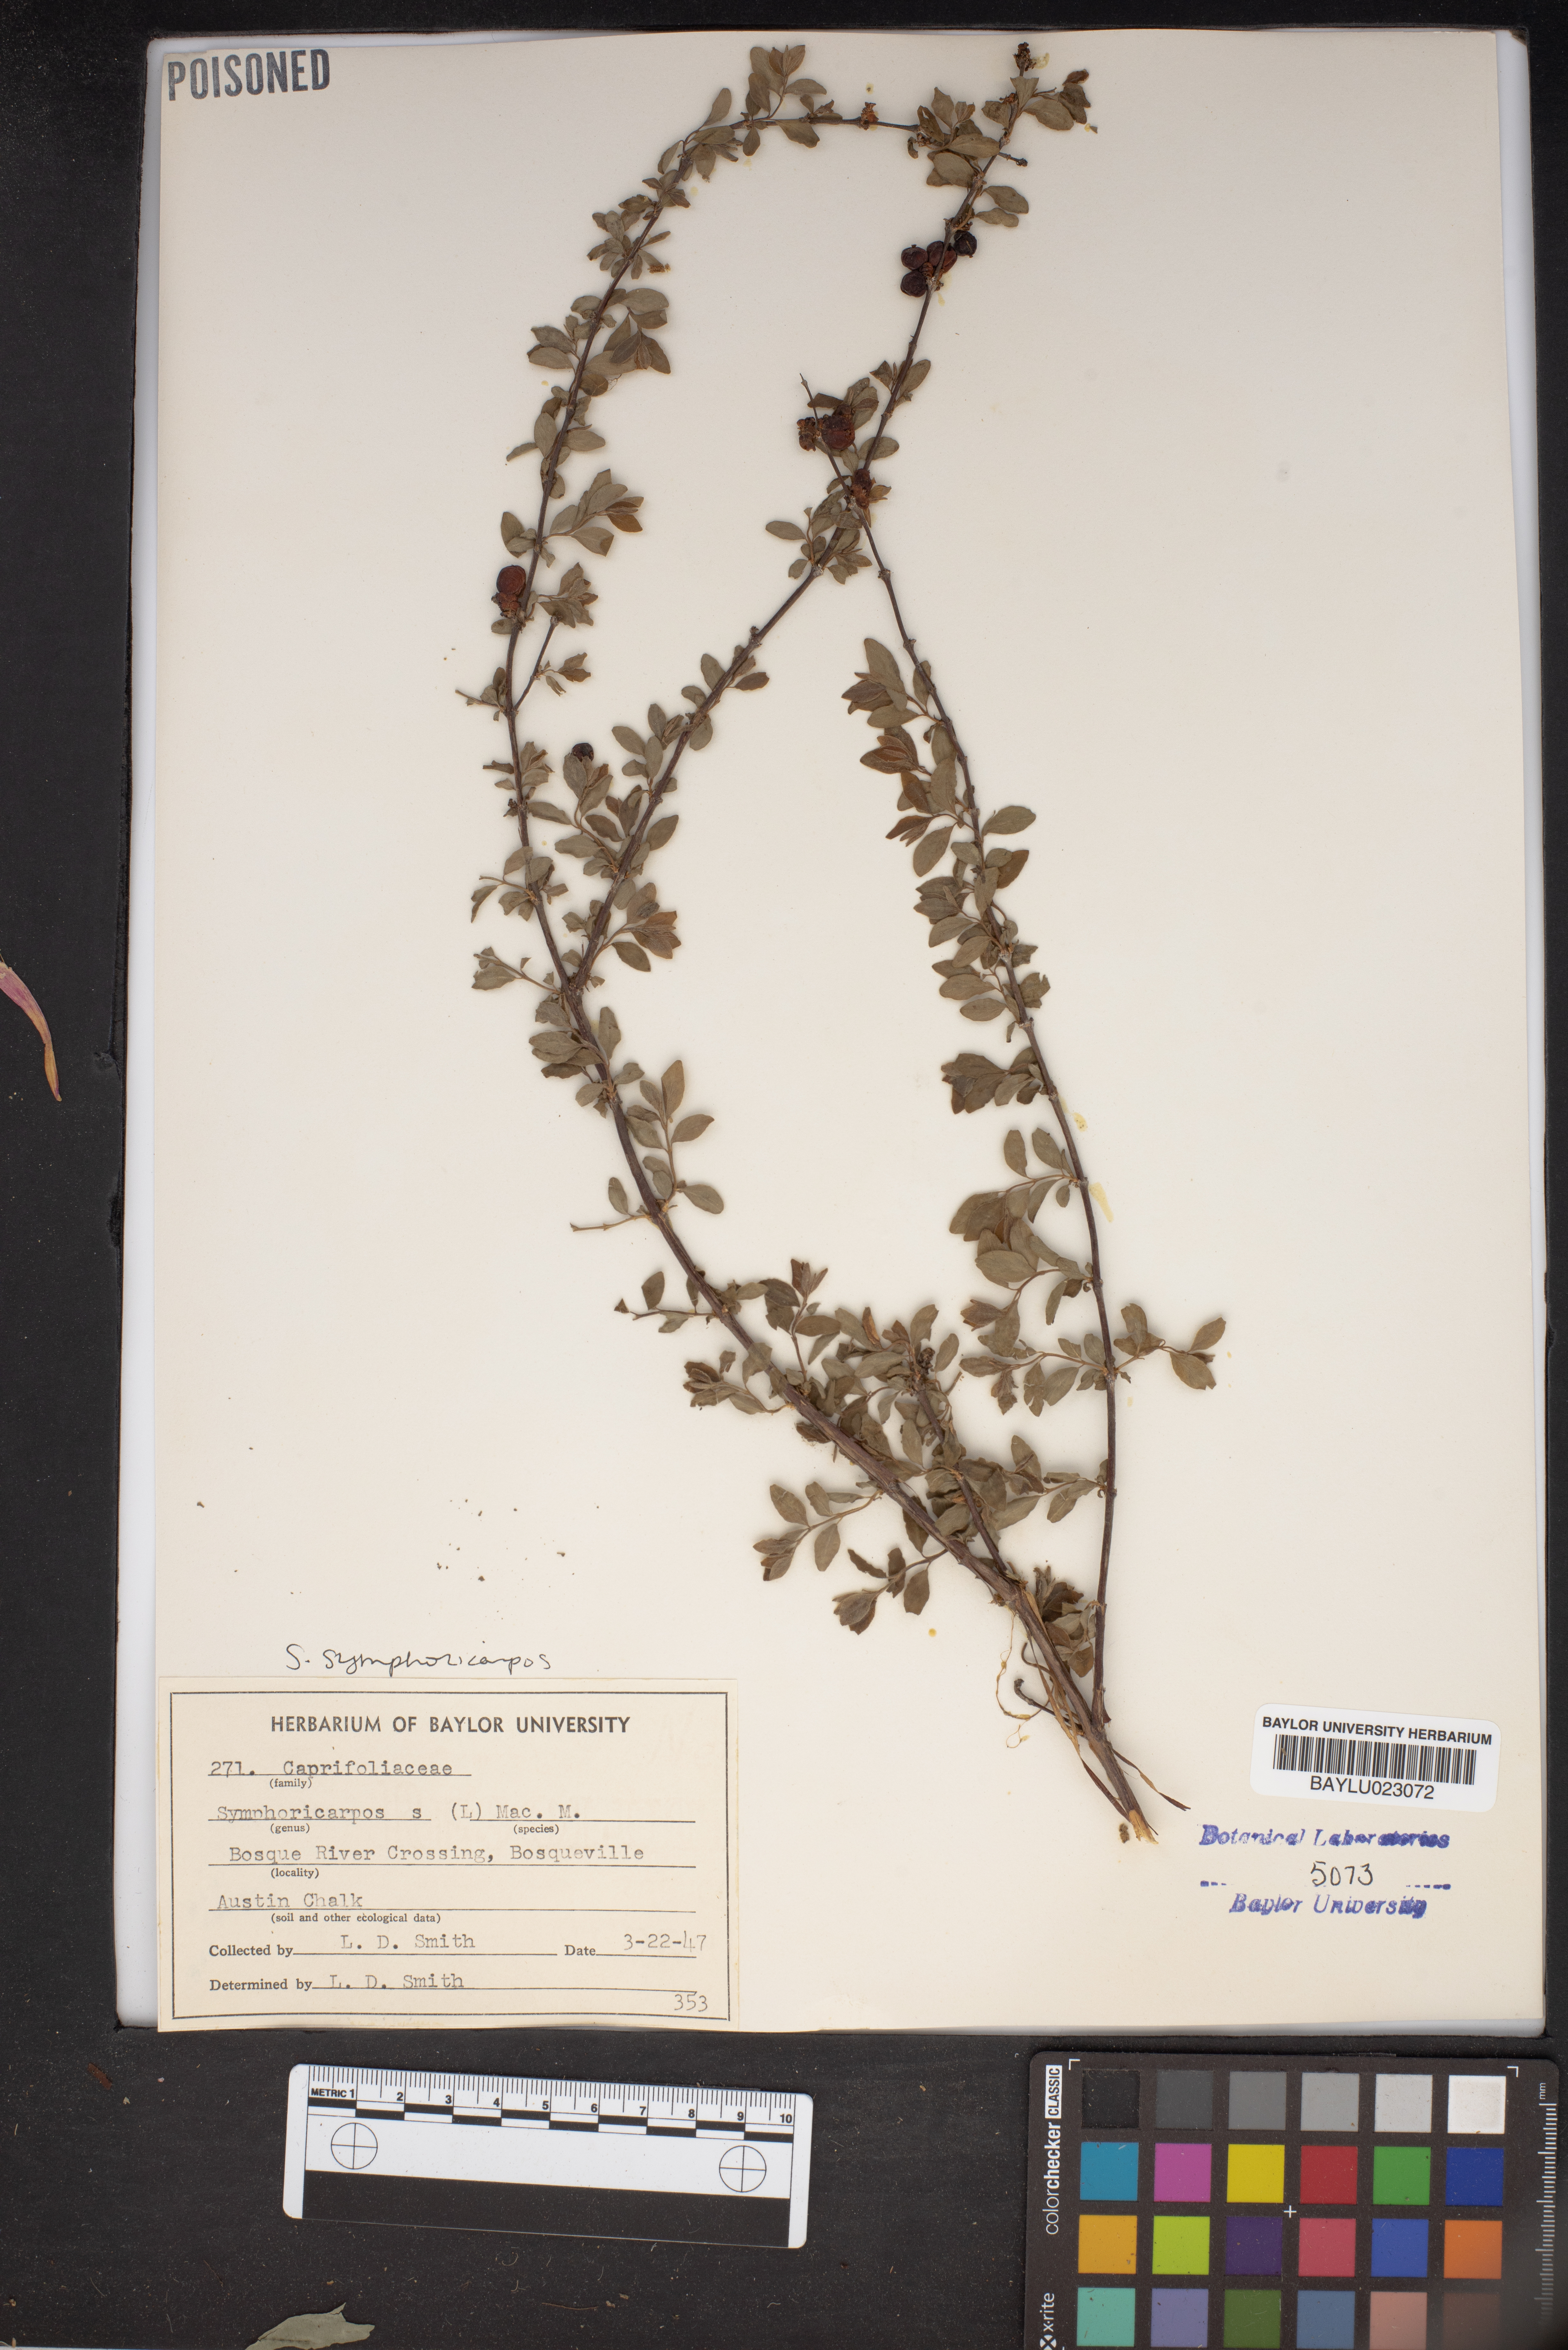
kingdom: Plantae
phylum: Tracheophyta
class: Magnoliopsida
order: Dipsacales
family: Caprifoliaceae
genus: Symphoricarpos
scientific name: Symphoricarpos orbiculatus
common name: Coralberry
